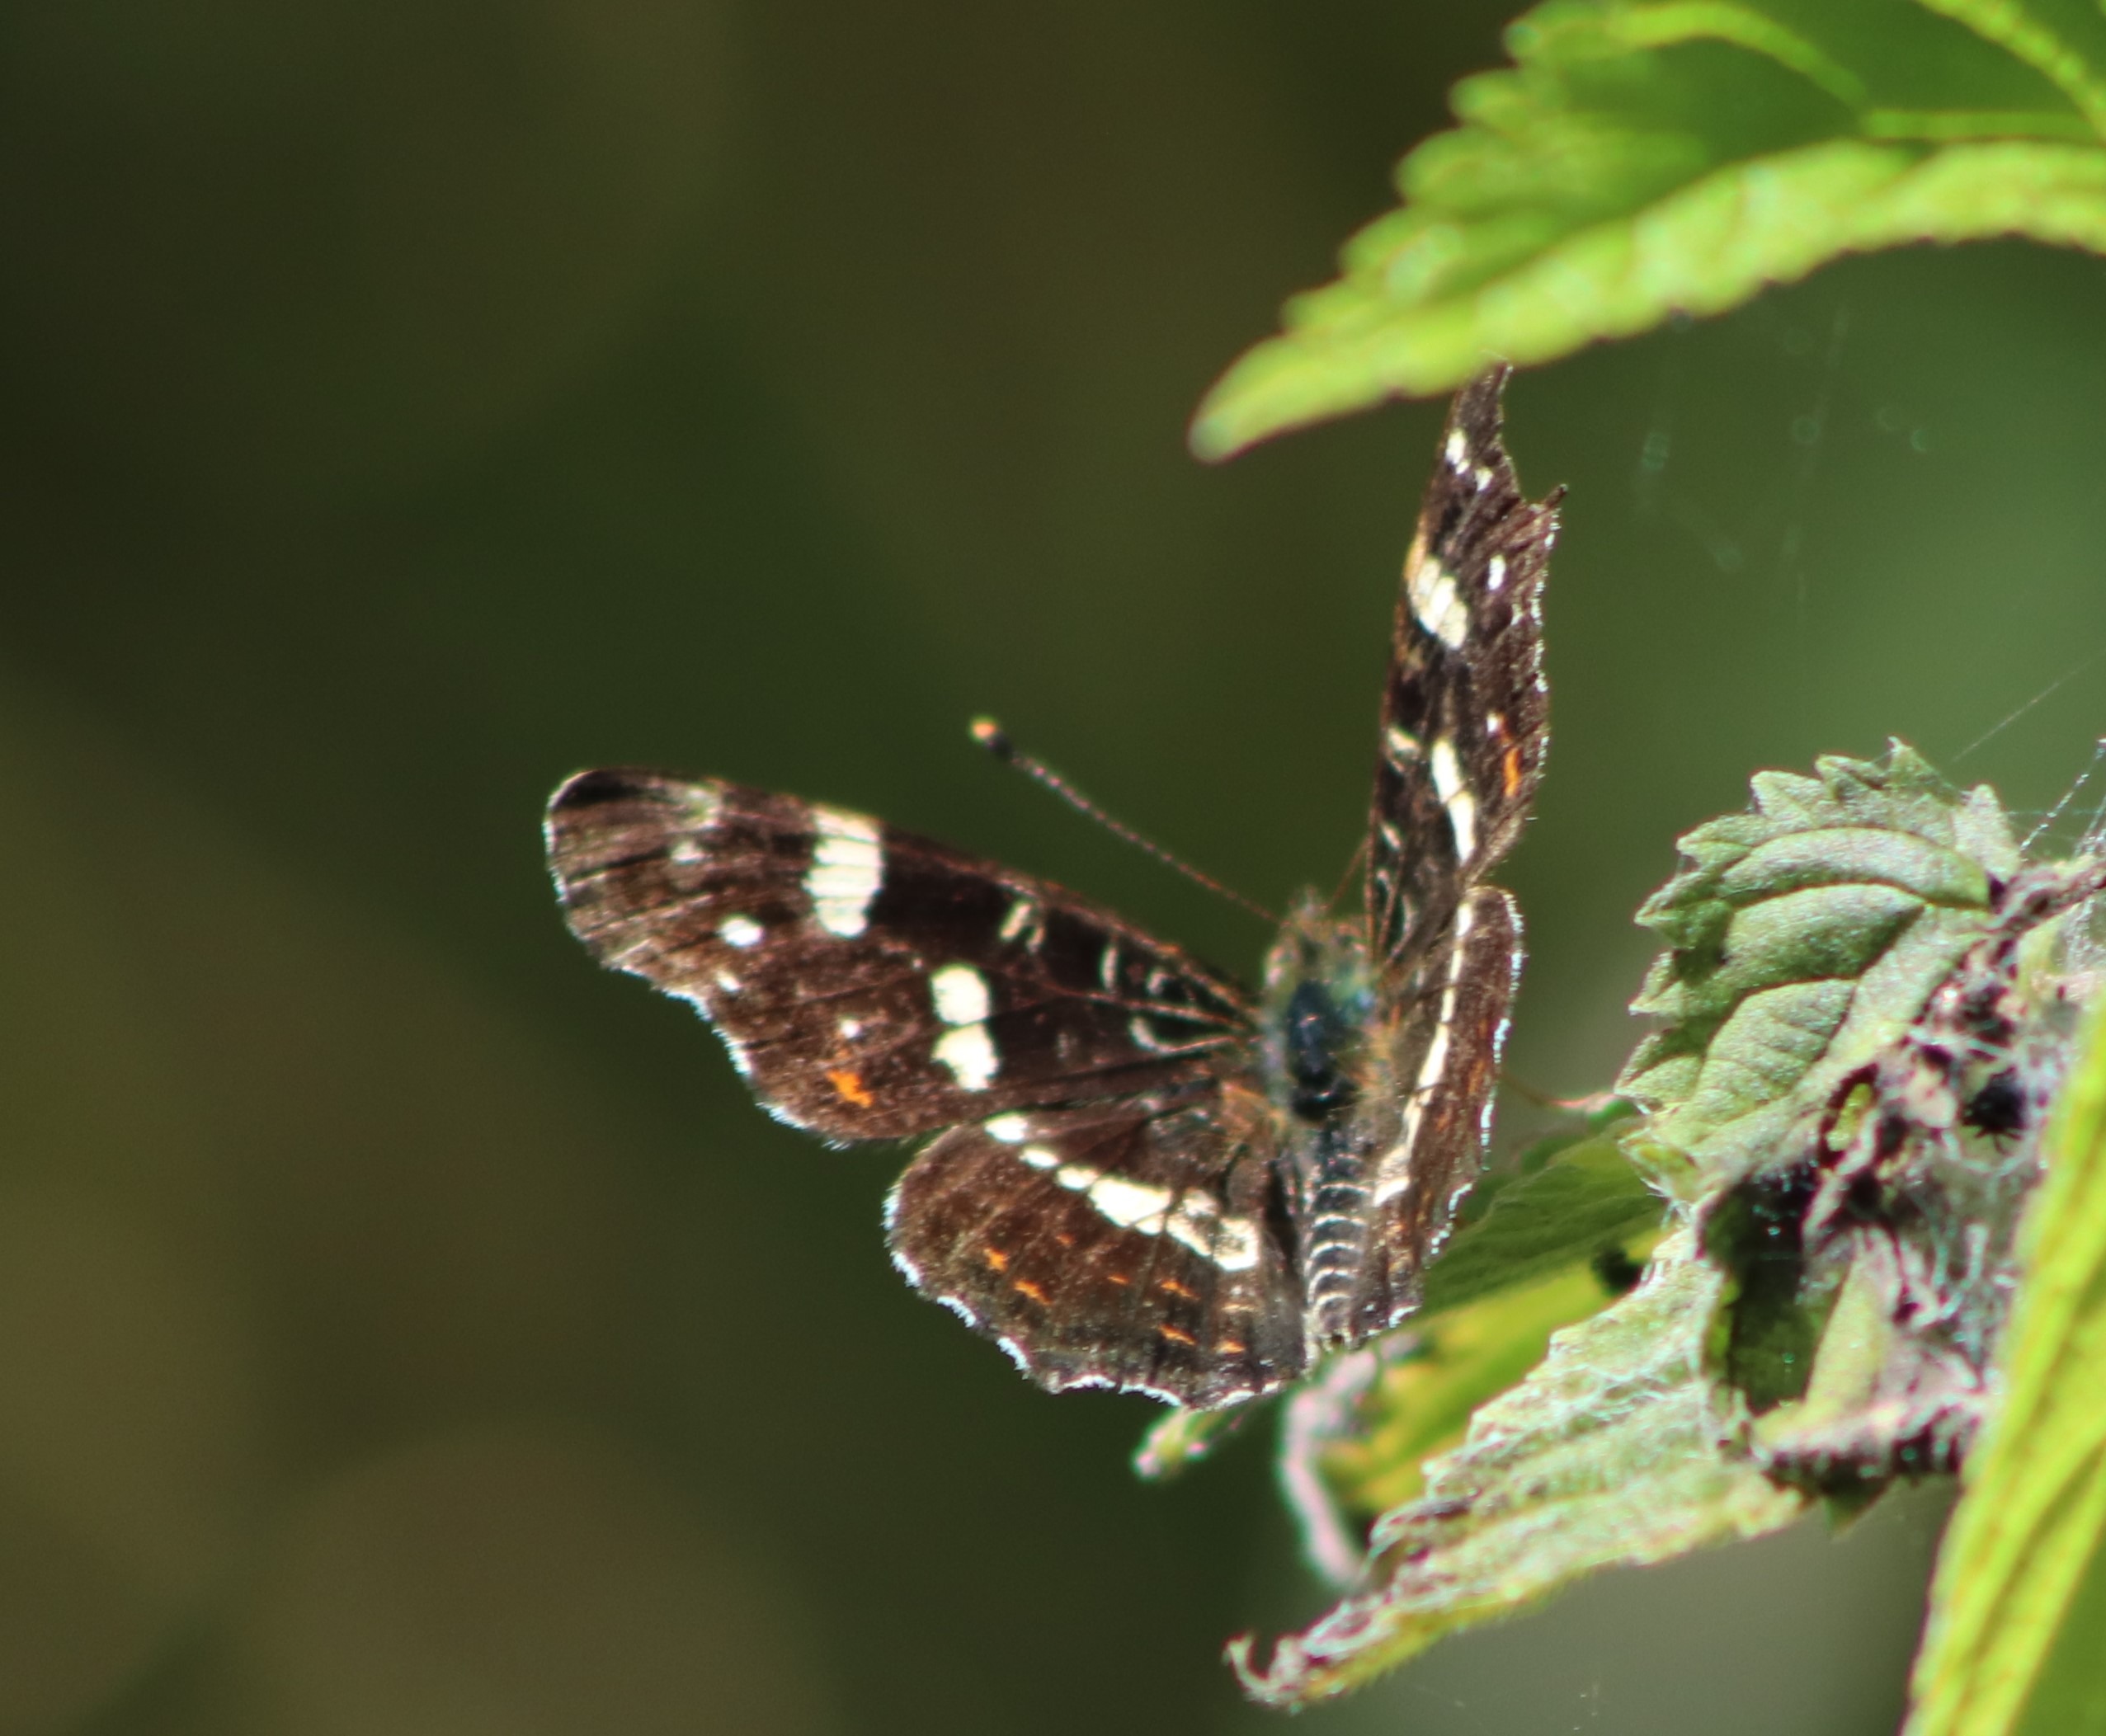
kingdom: Animalia
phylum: Arthropoda
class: Insecta
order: Lepidoptera
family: Nymphalidae
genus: Araschnia
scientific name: Araschnia levana
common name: Nældesommerfugl
